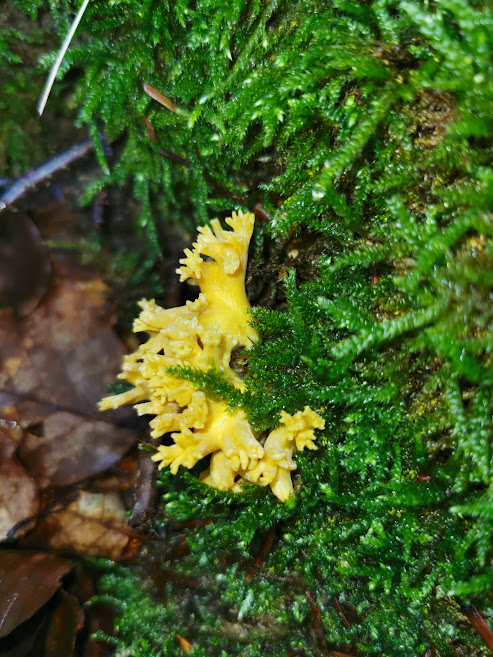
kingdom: Fungi
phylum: Basidiomycota
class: Agaricomycetes
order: Gomphales
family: Gomphaceae
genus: Ramaria
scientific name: Ramaria
